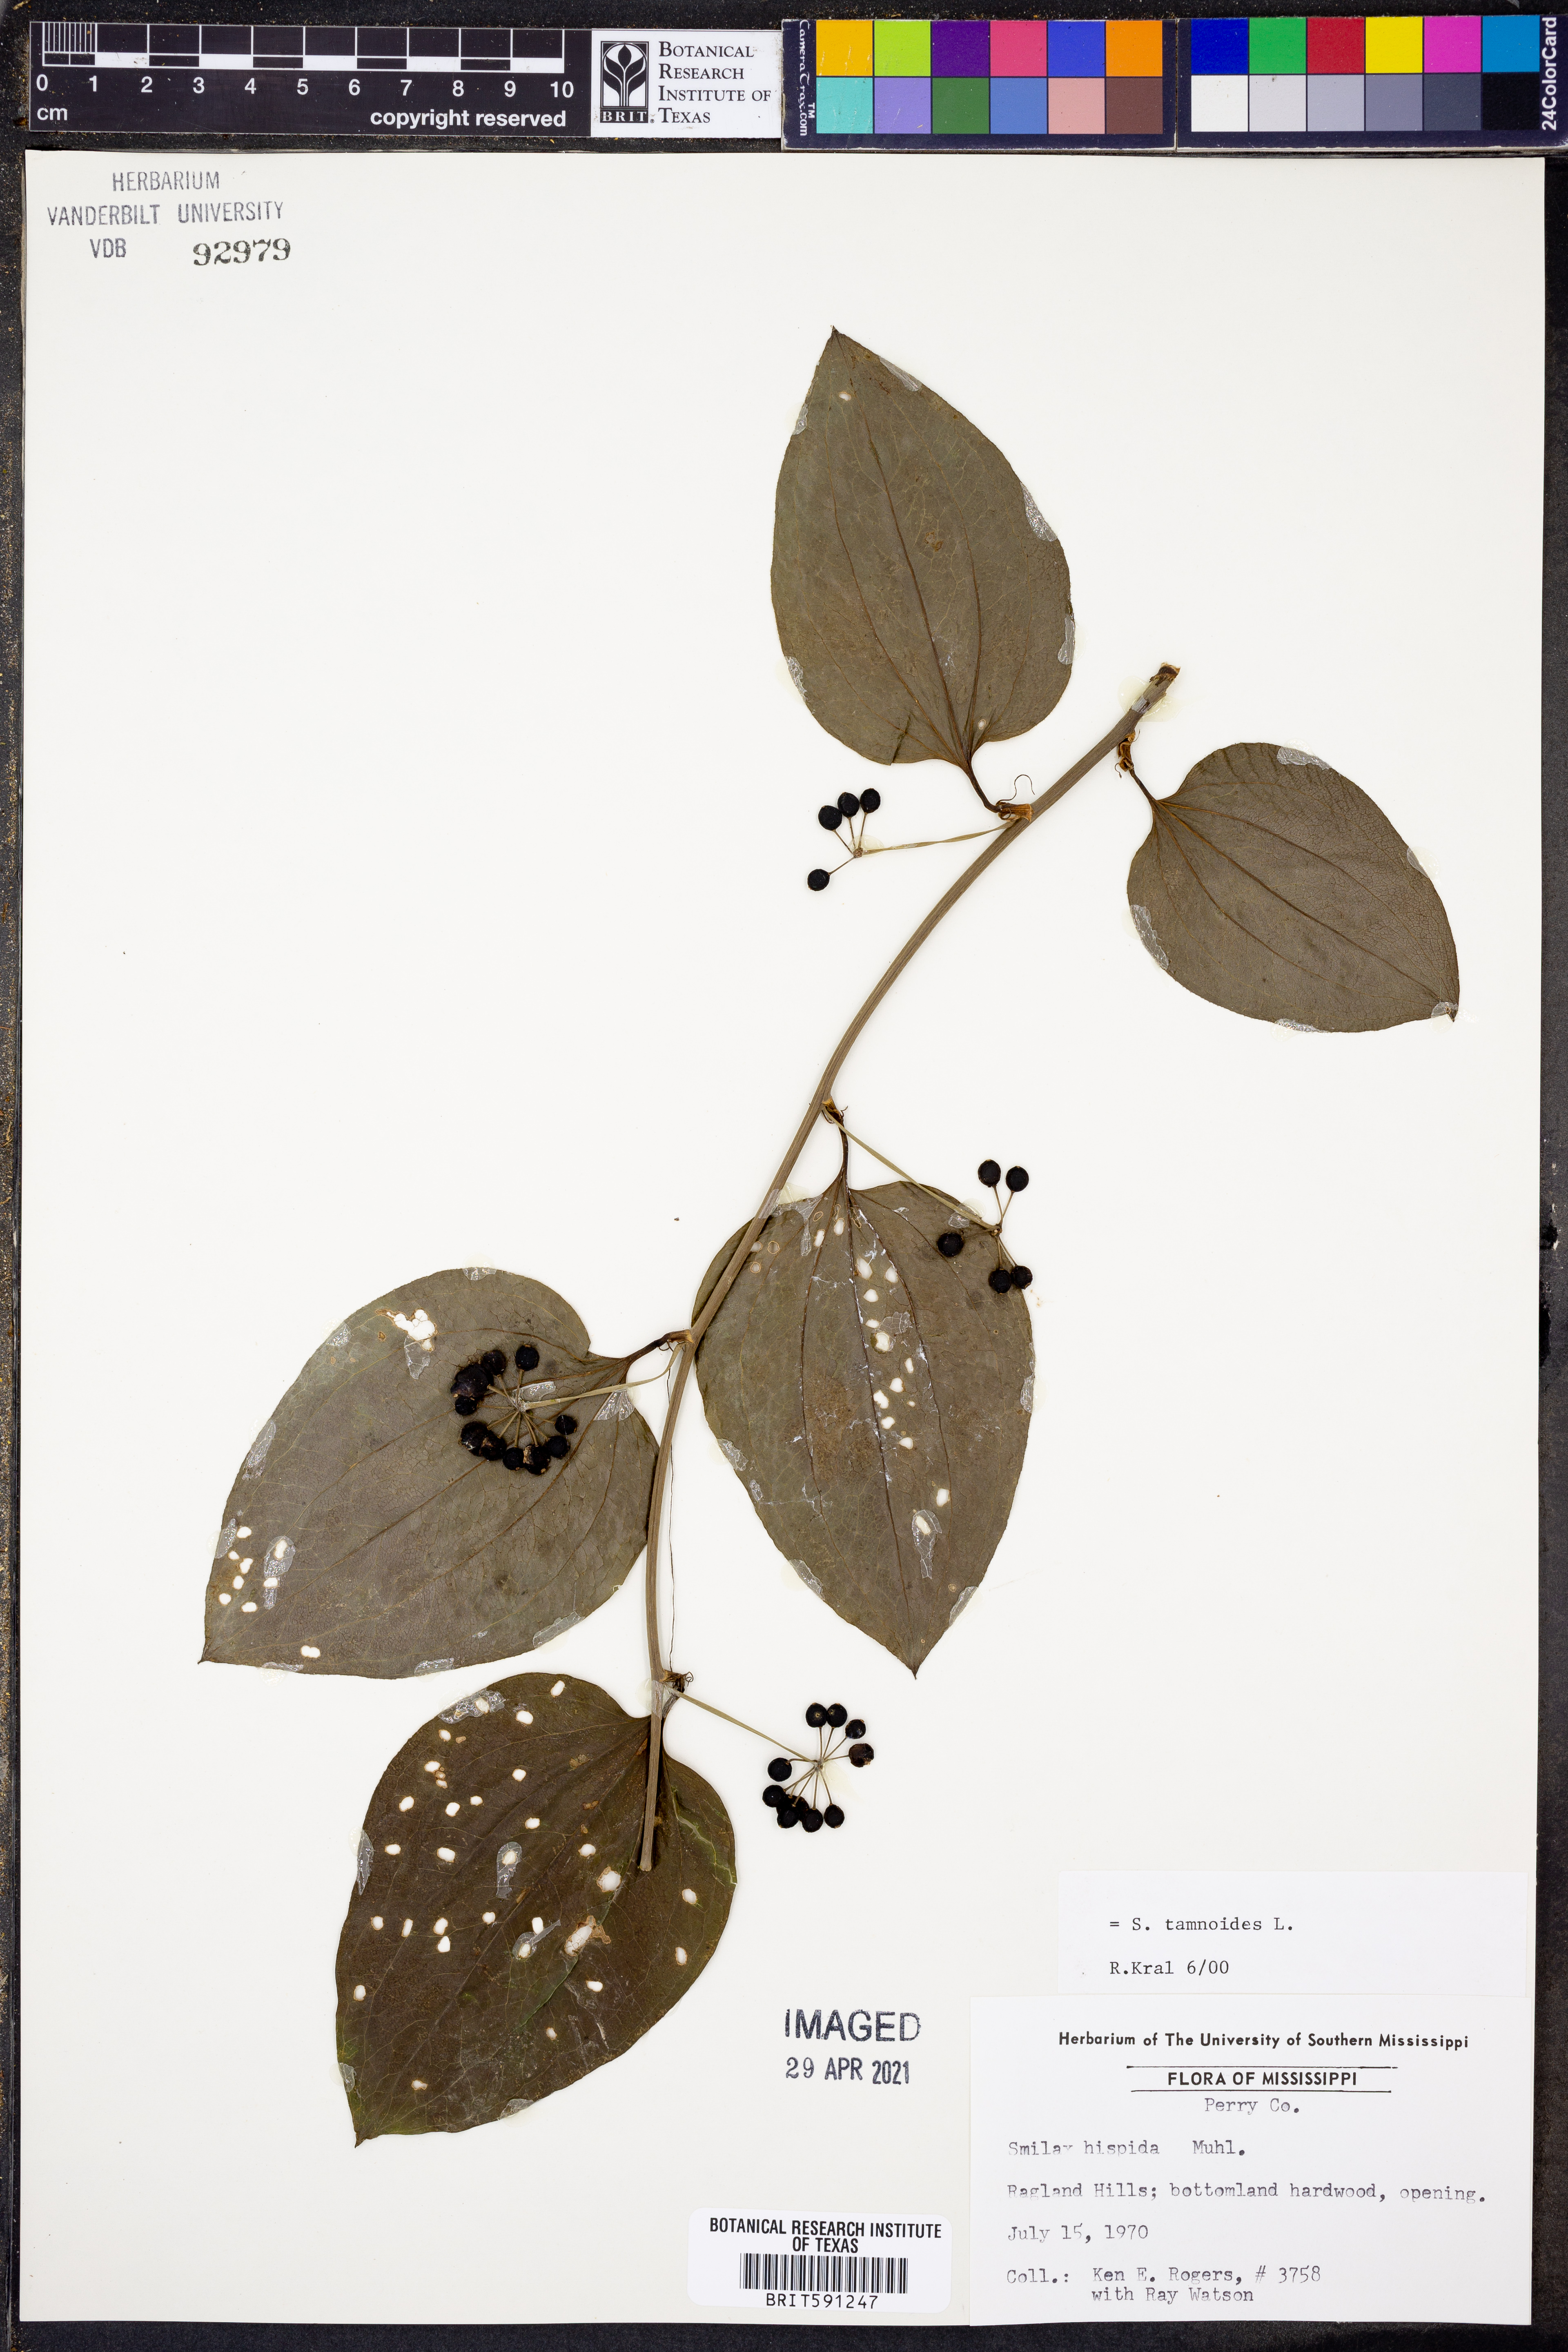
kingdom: Plantae
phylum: Tracheophyta
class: Liliopsida
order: Liliales
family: Smilacaceae
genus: Smilax
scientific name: Smilax tamnoides
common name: Hellfetter
